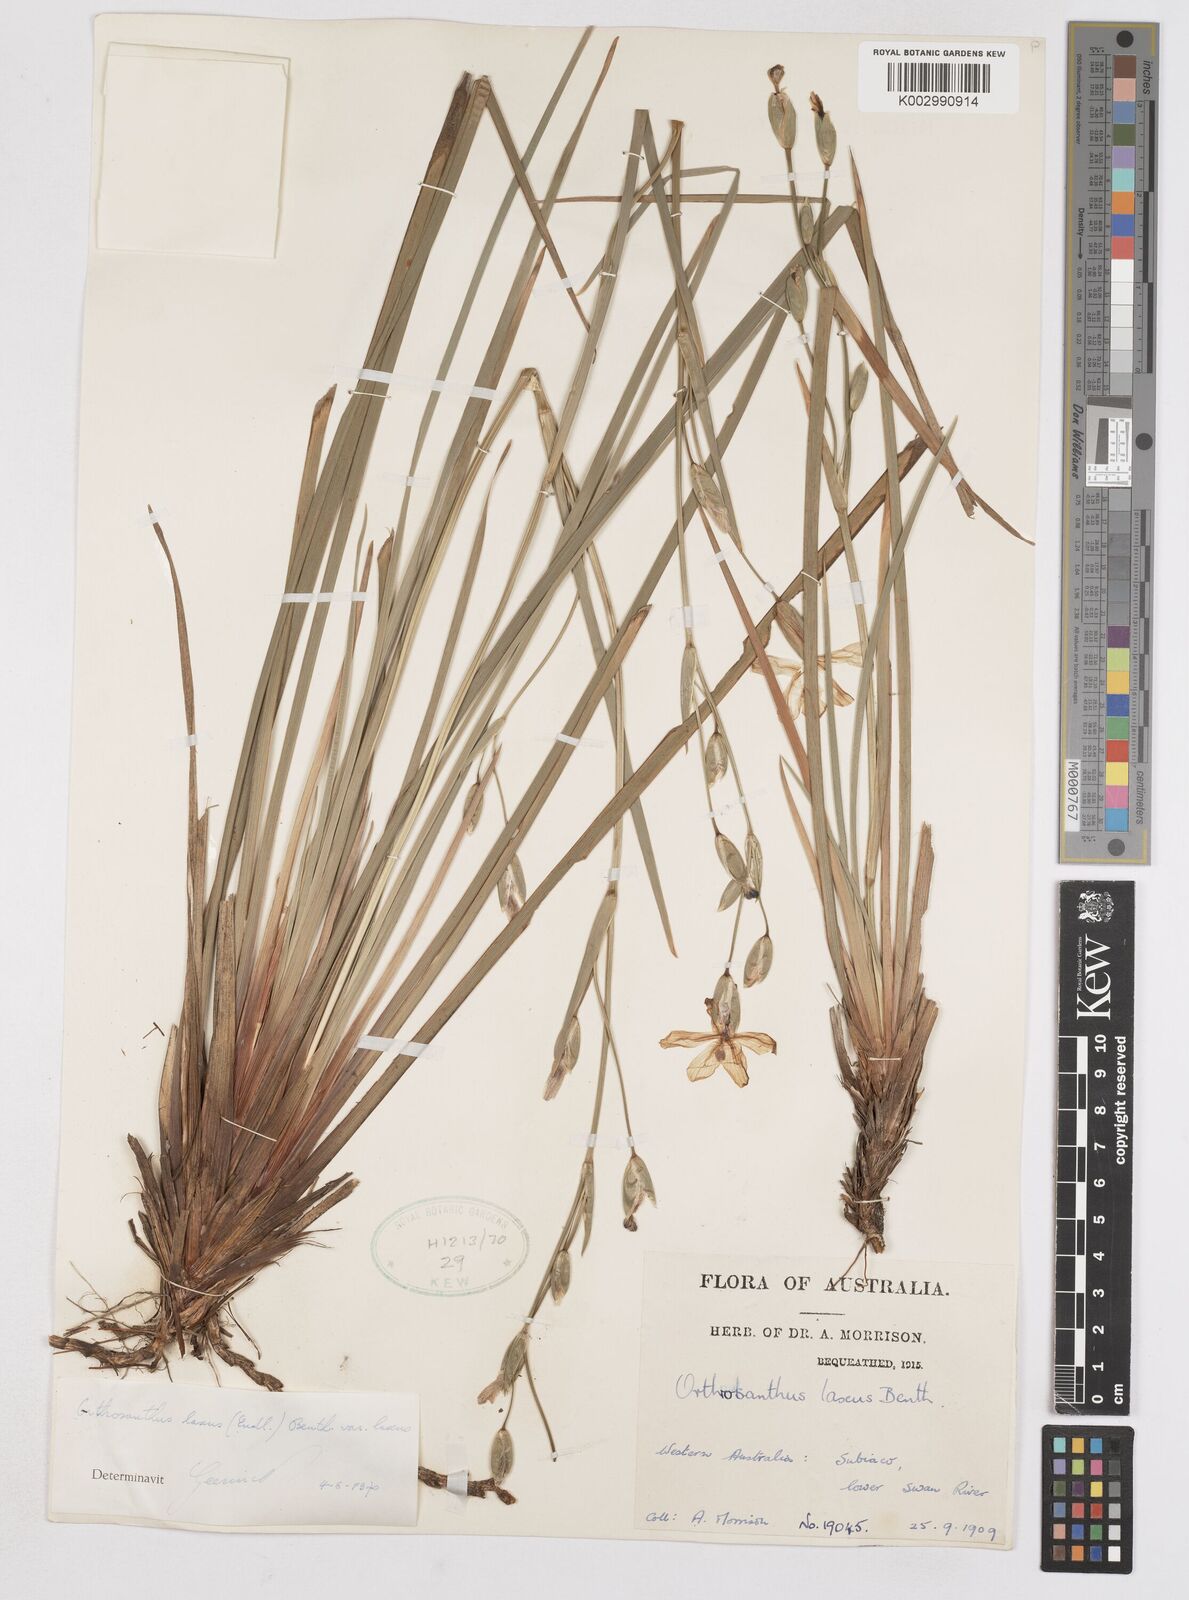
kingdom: Plantae
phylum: Tracheophyta
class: Liliopsida
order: Asparagales
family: Iridaceae
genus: Orthrosanthus
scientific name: Orthrosanthus laxus
